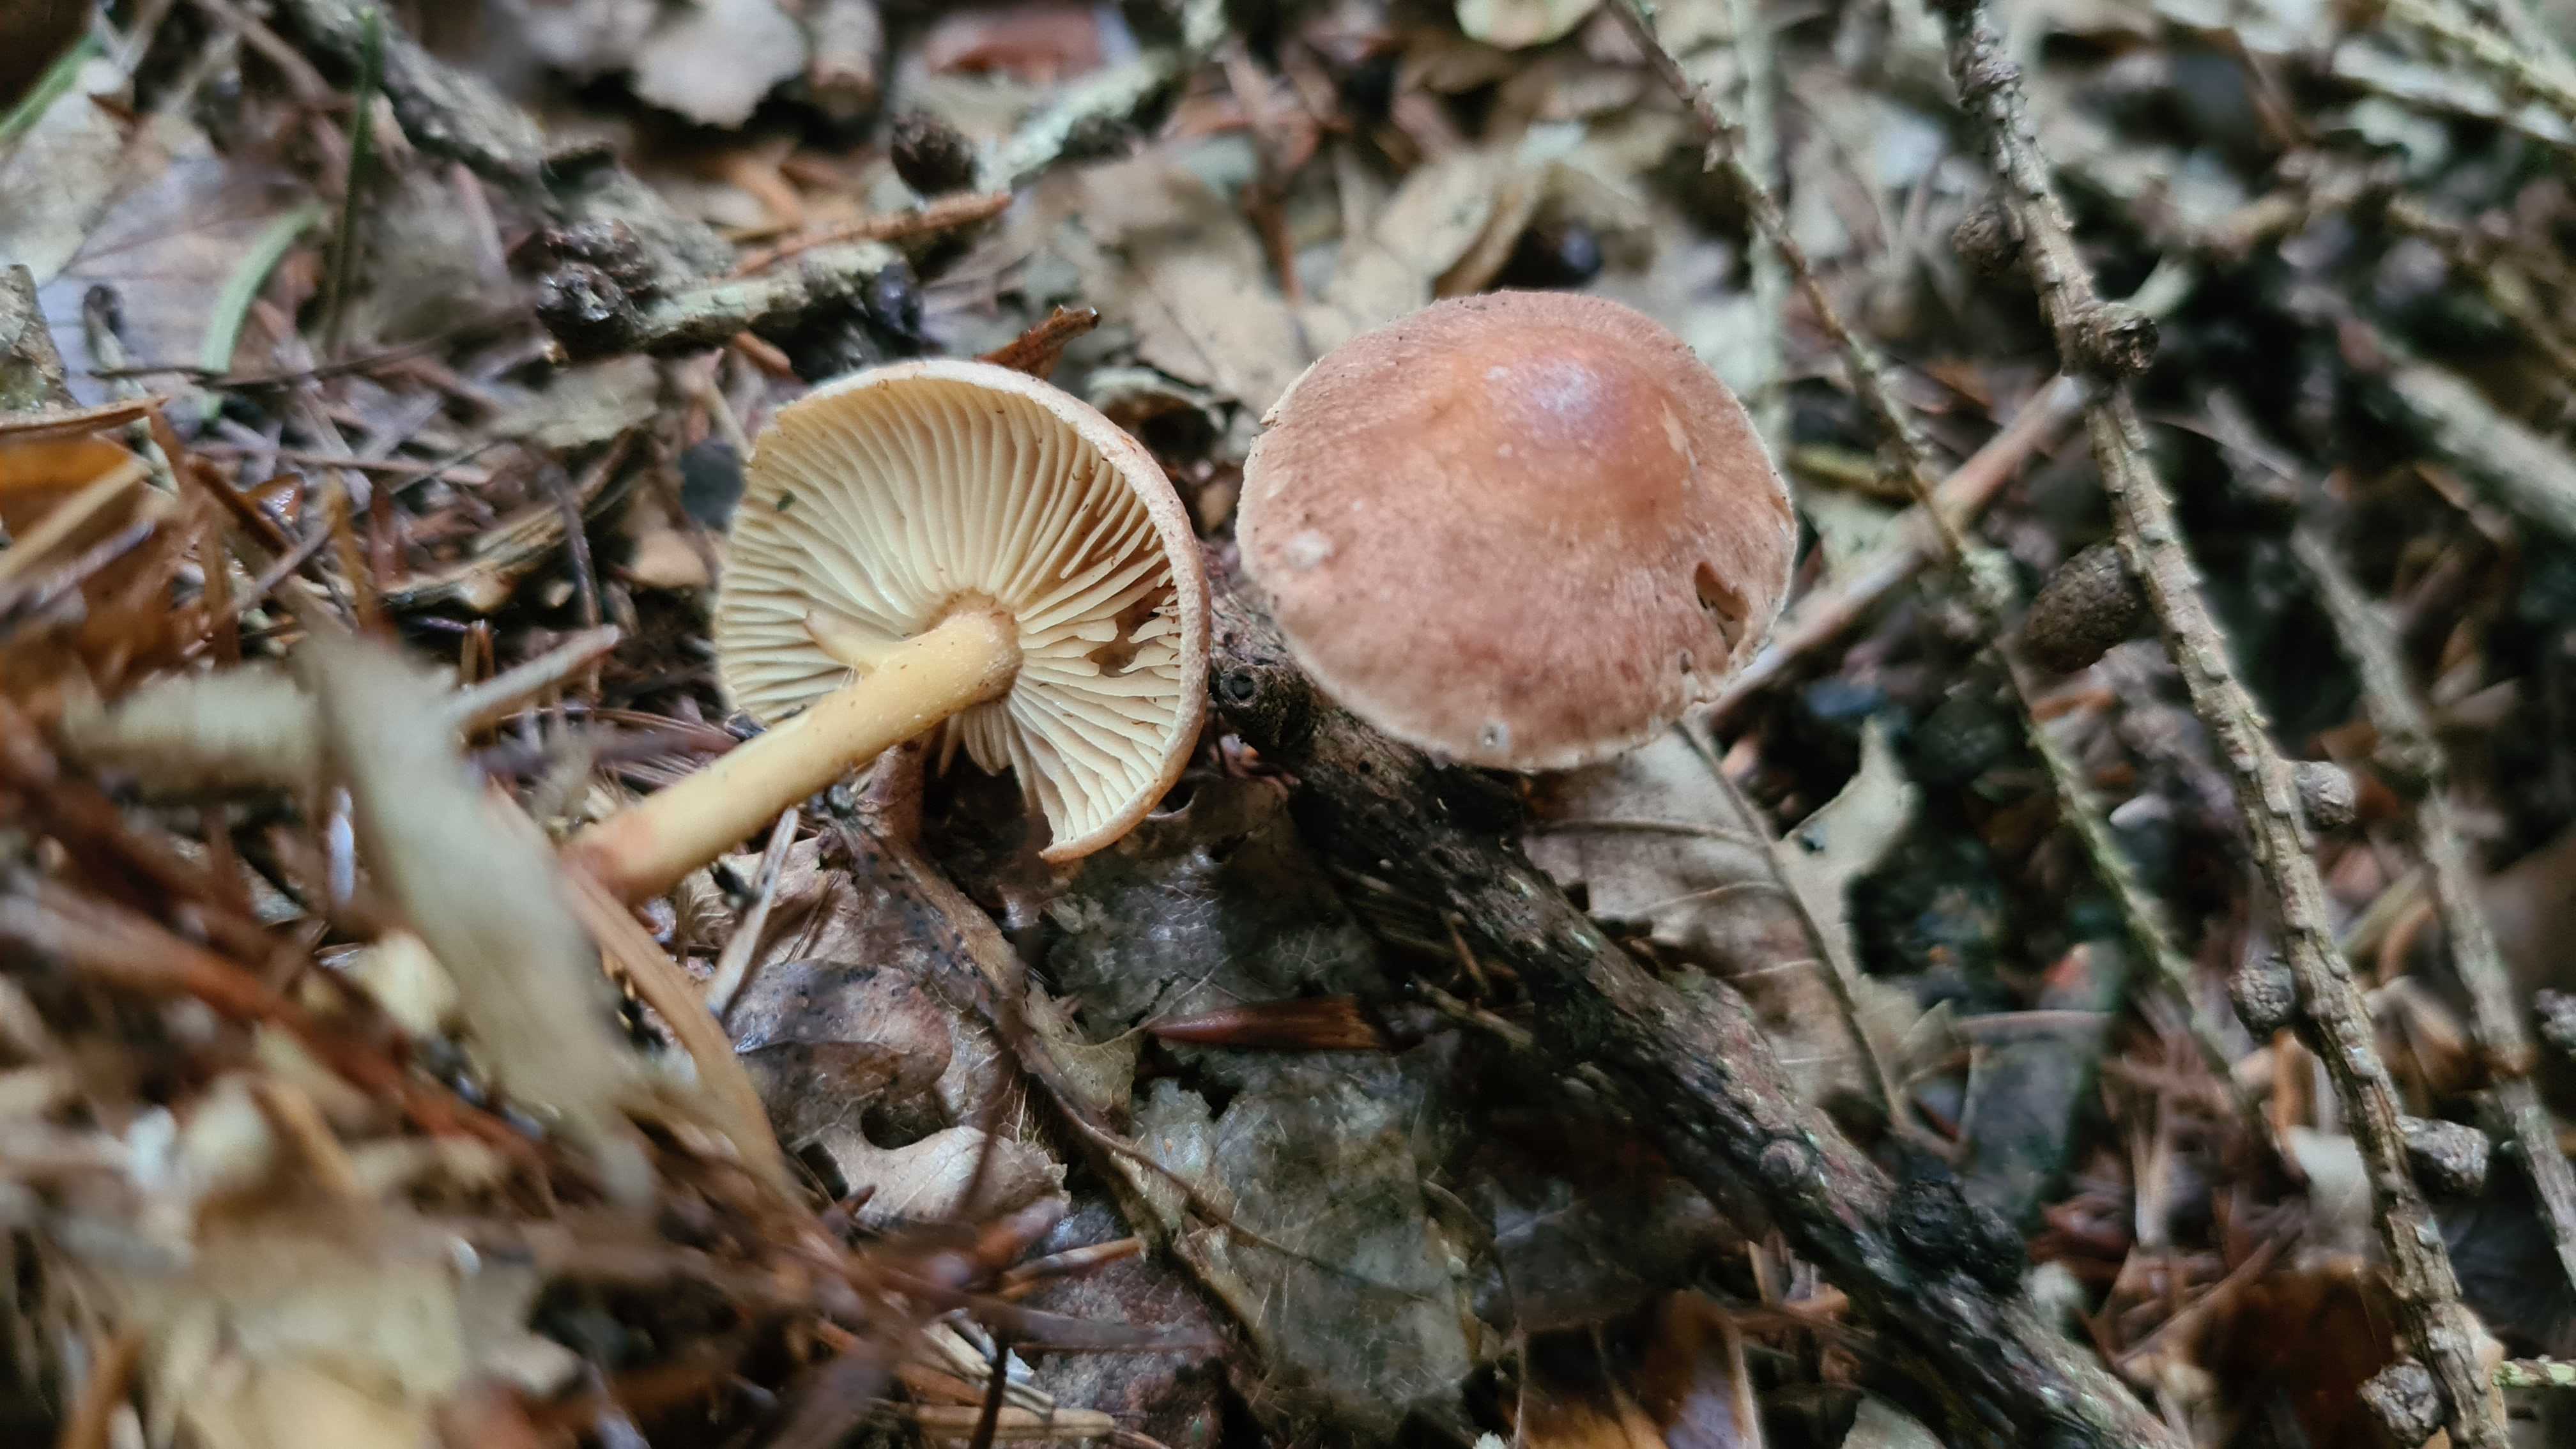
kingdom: Fungi
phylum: Basidiomycota
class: Agaricomycetes
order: Agaricales
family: Omphalotaceae
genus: Collybiopsis
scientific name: Collybiopsis peronata
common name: bestøvlet fladhat
